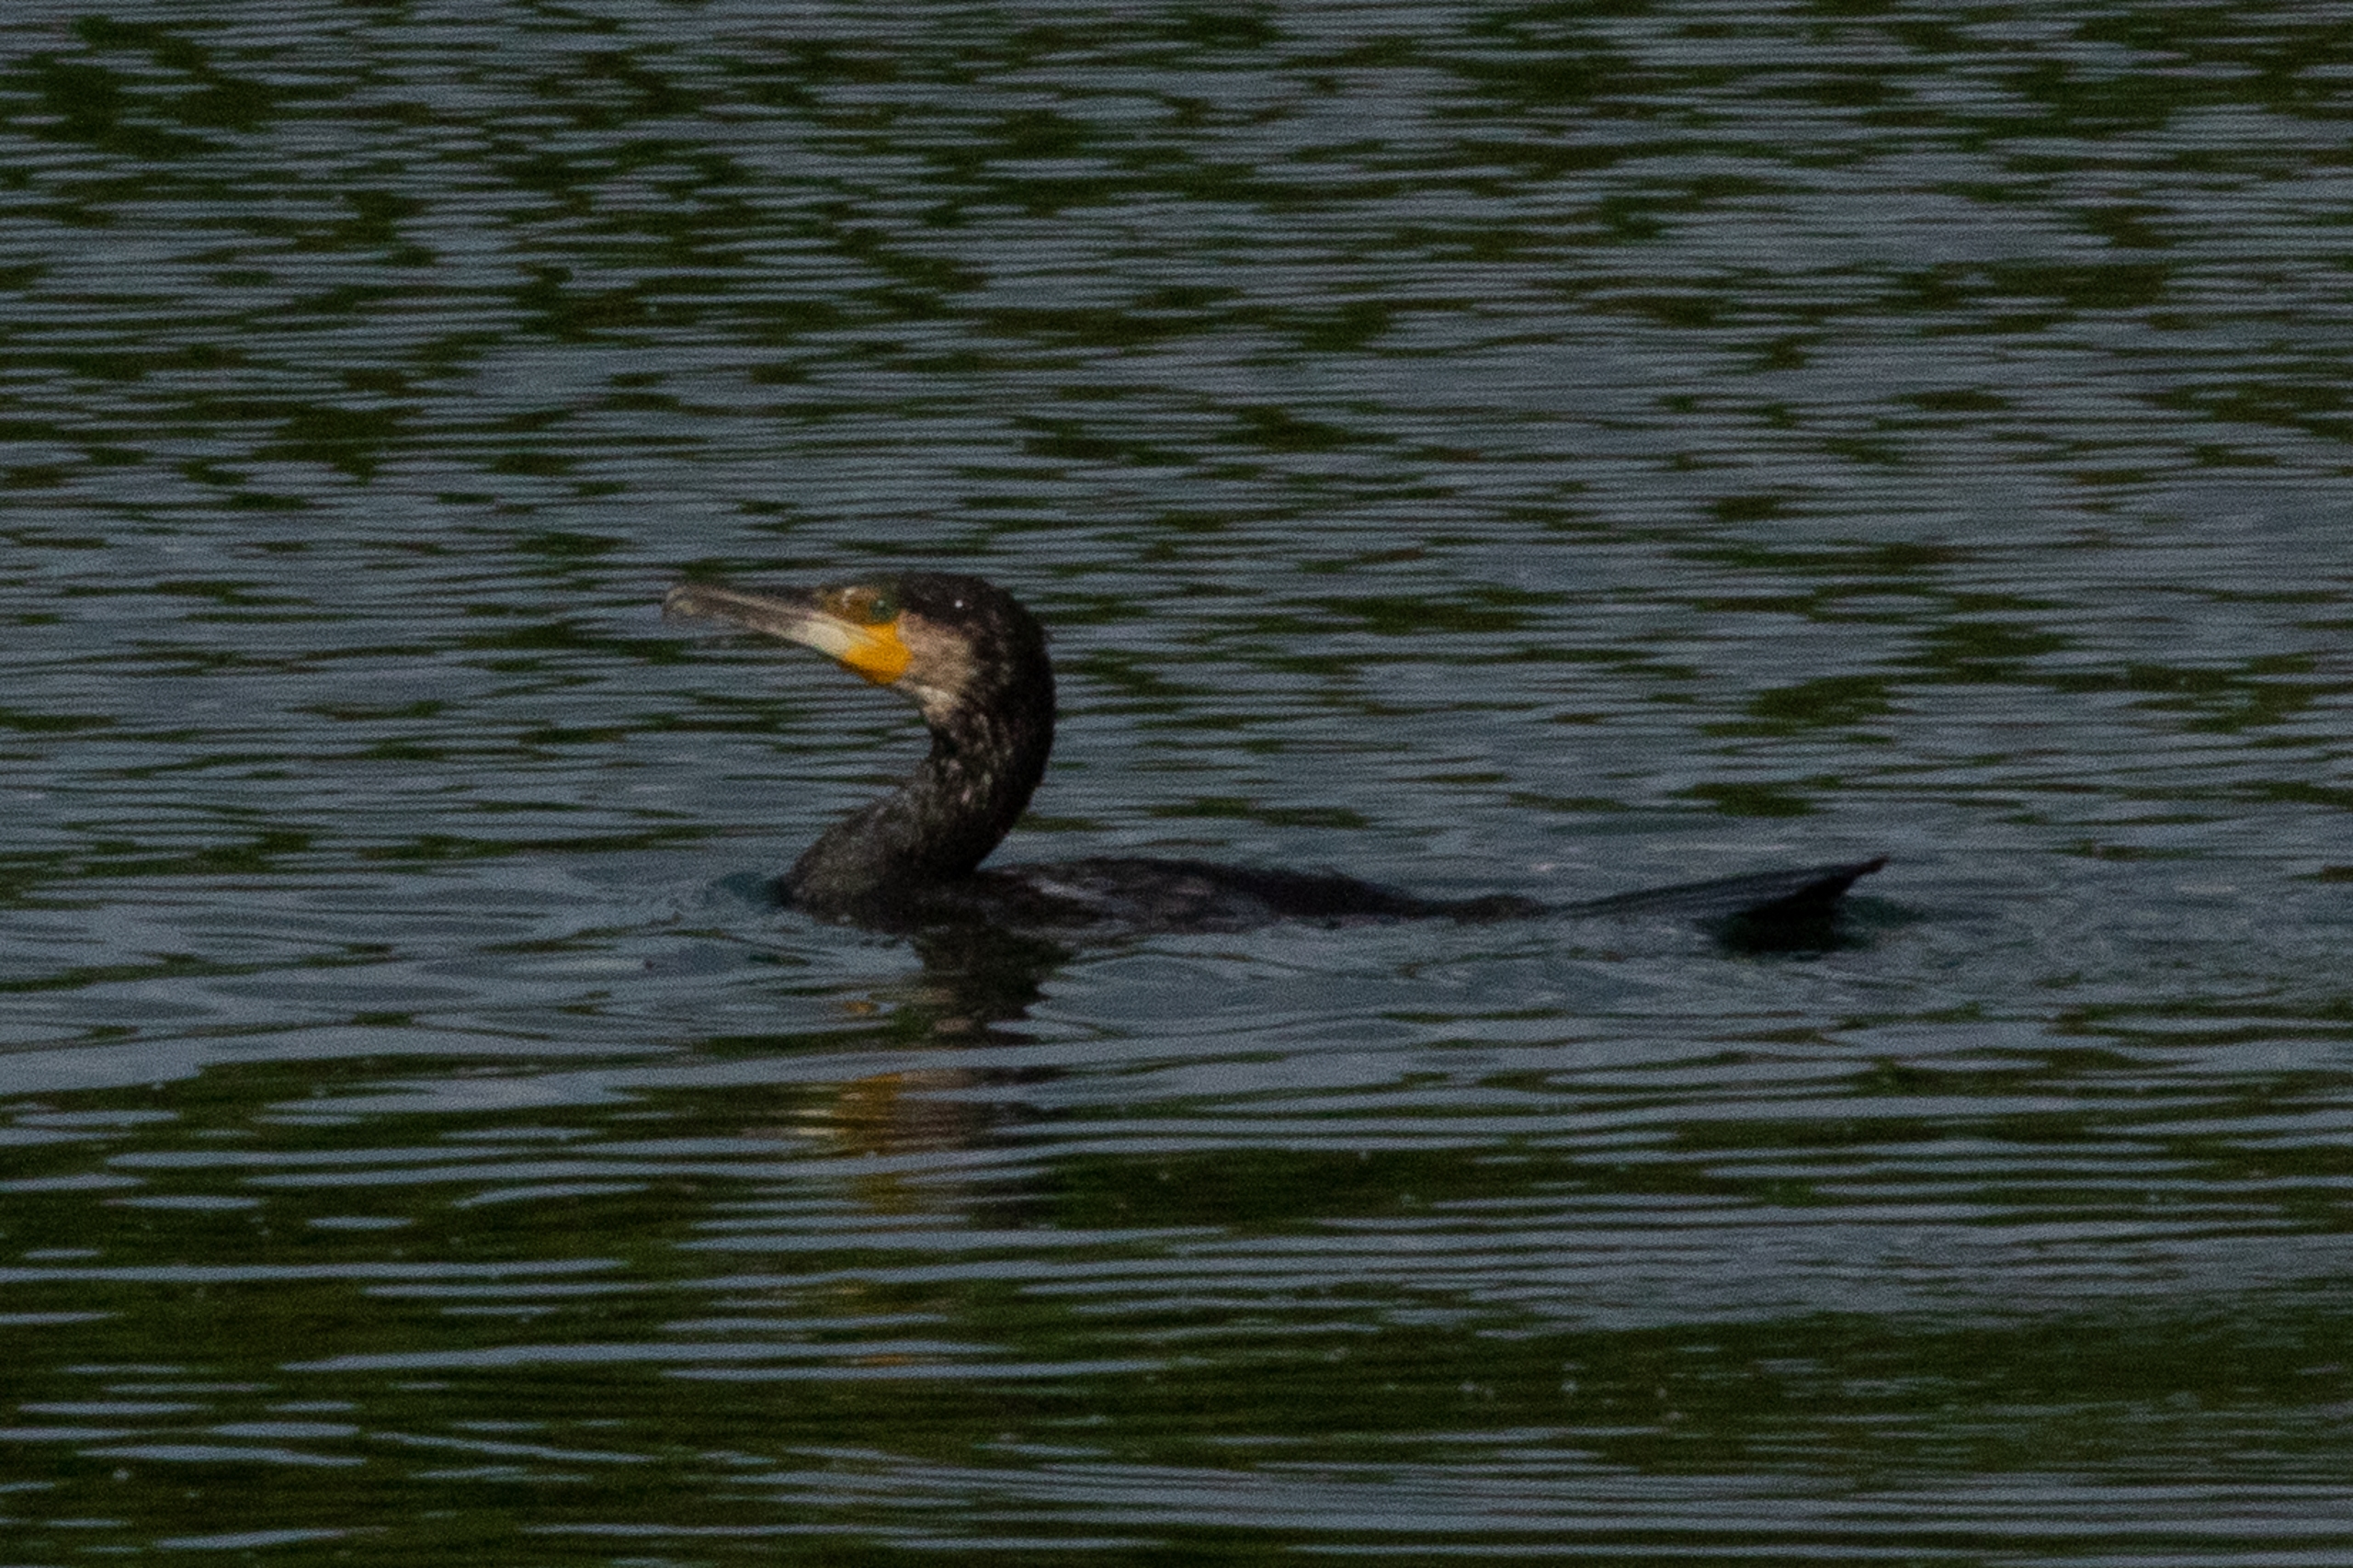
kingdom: Animalia
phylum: Chordata
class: Aves
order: Suliformes
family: Phalacrocoracidae
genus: Phalacrocorax
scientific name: Phalacrocorax carbo
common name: Skarv
